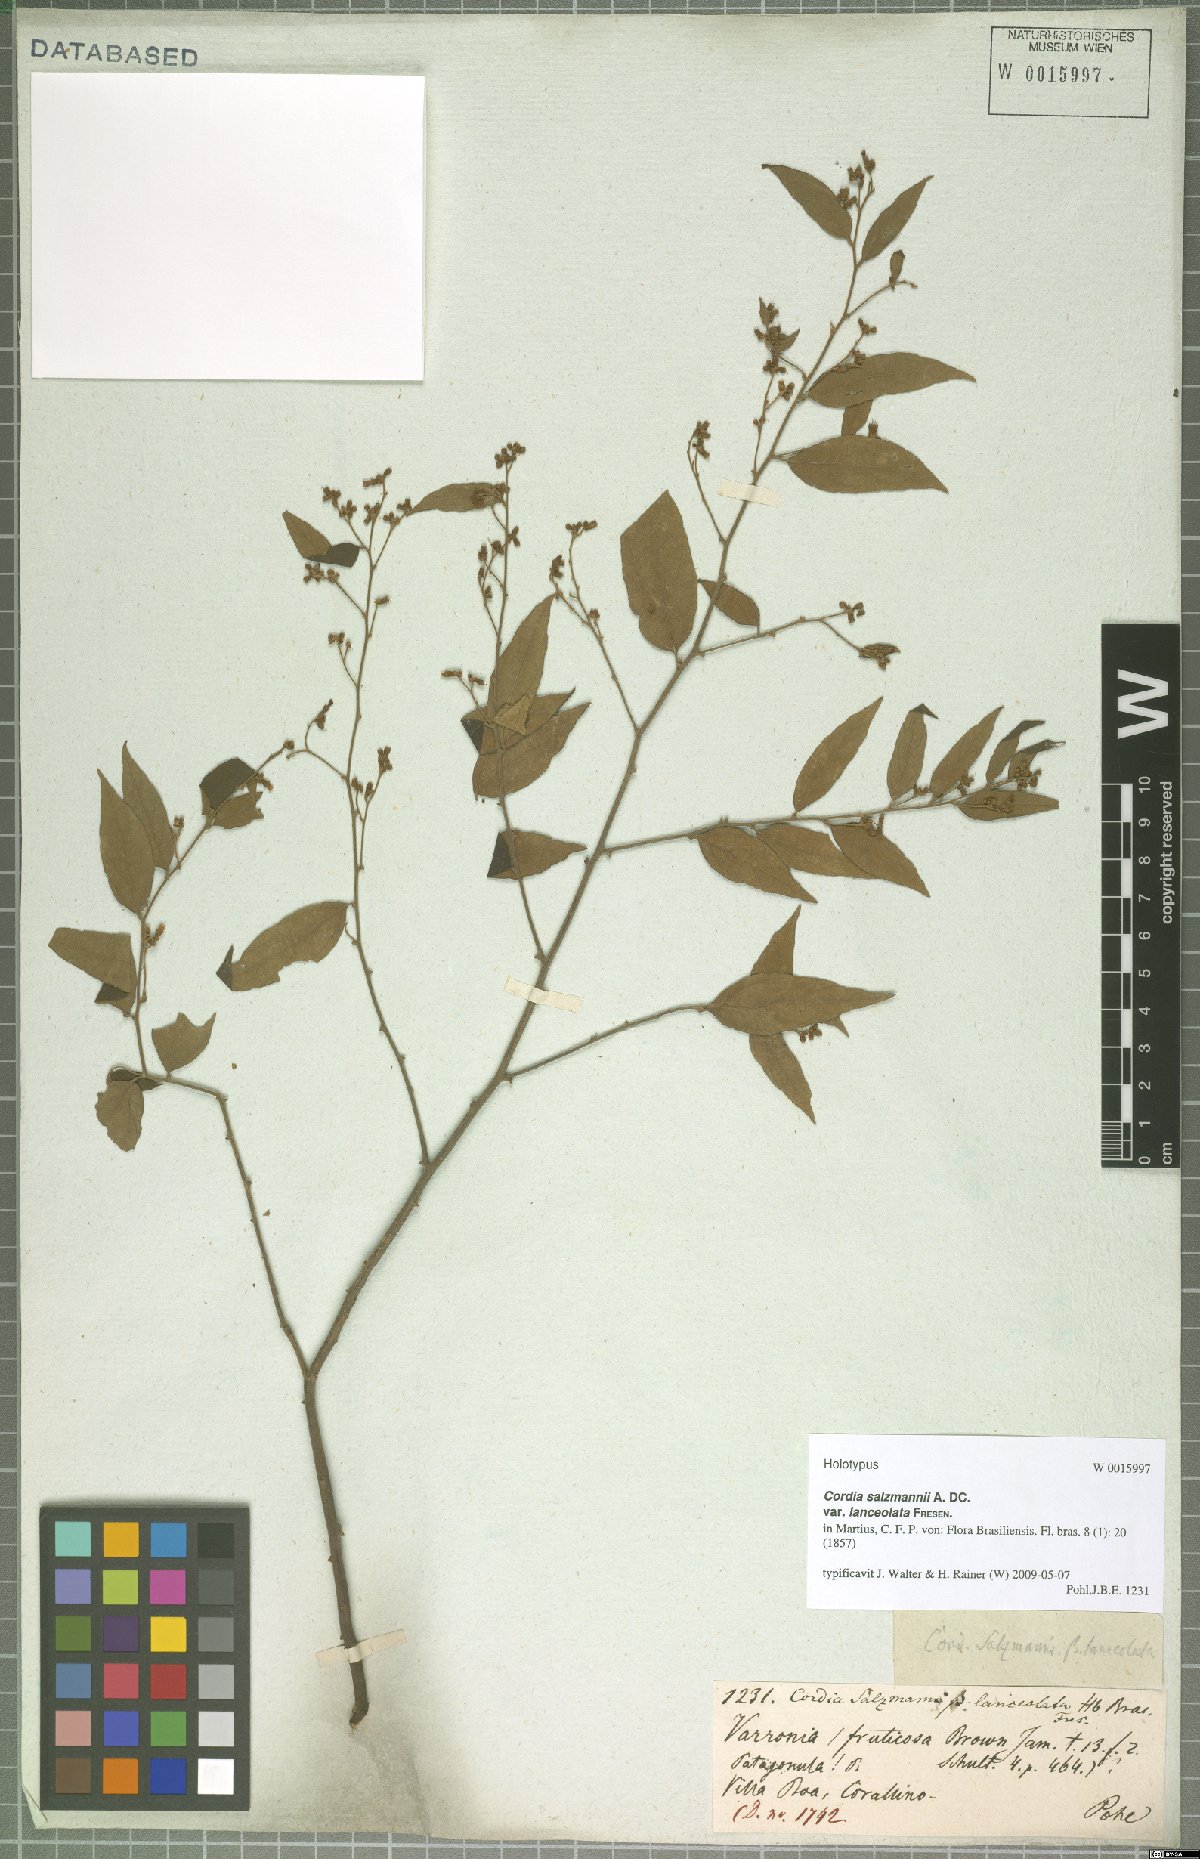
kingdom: Plantae
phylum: Tracheophyta
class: Magnoliopsida
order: Boraginales
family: Cordiaceae
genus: Varronia
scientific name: Varronia polycephala
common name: Black-sage
